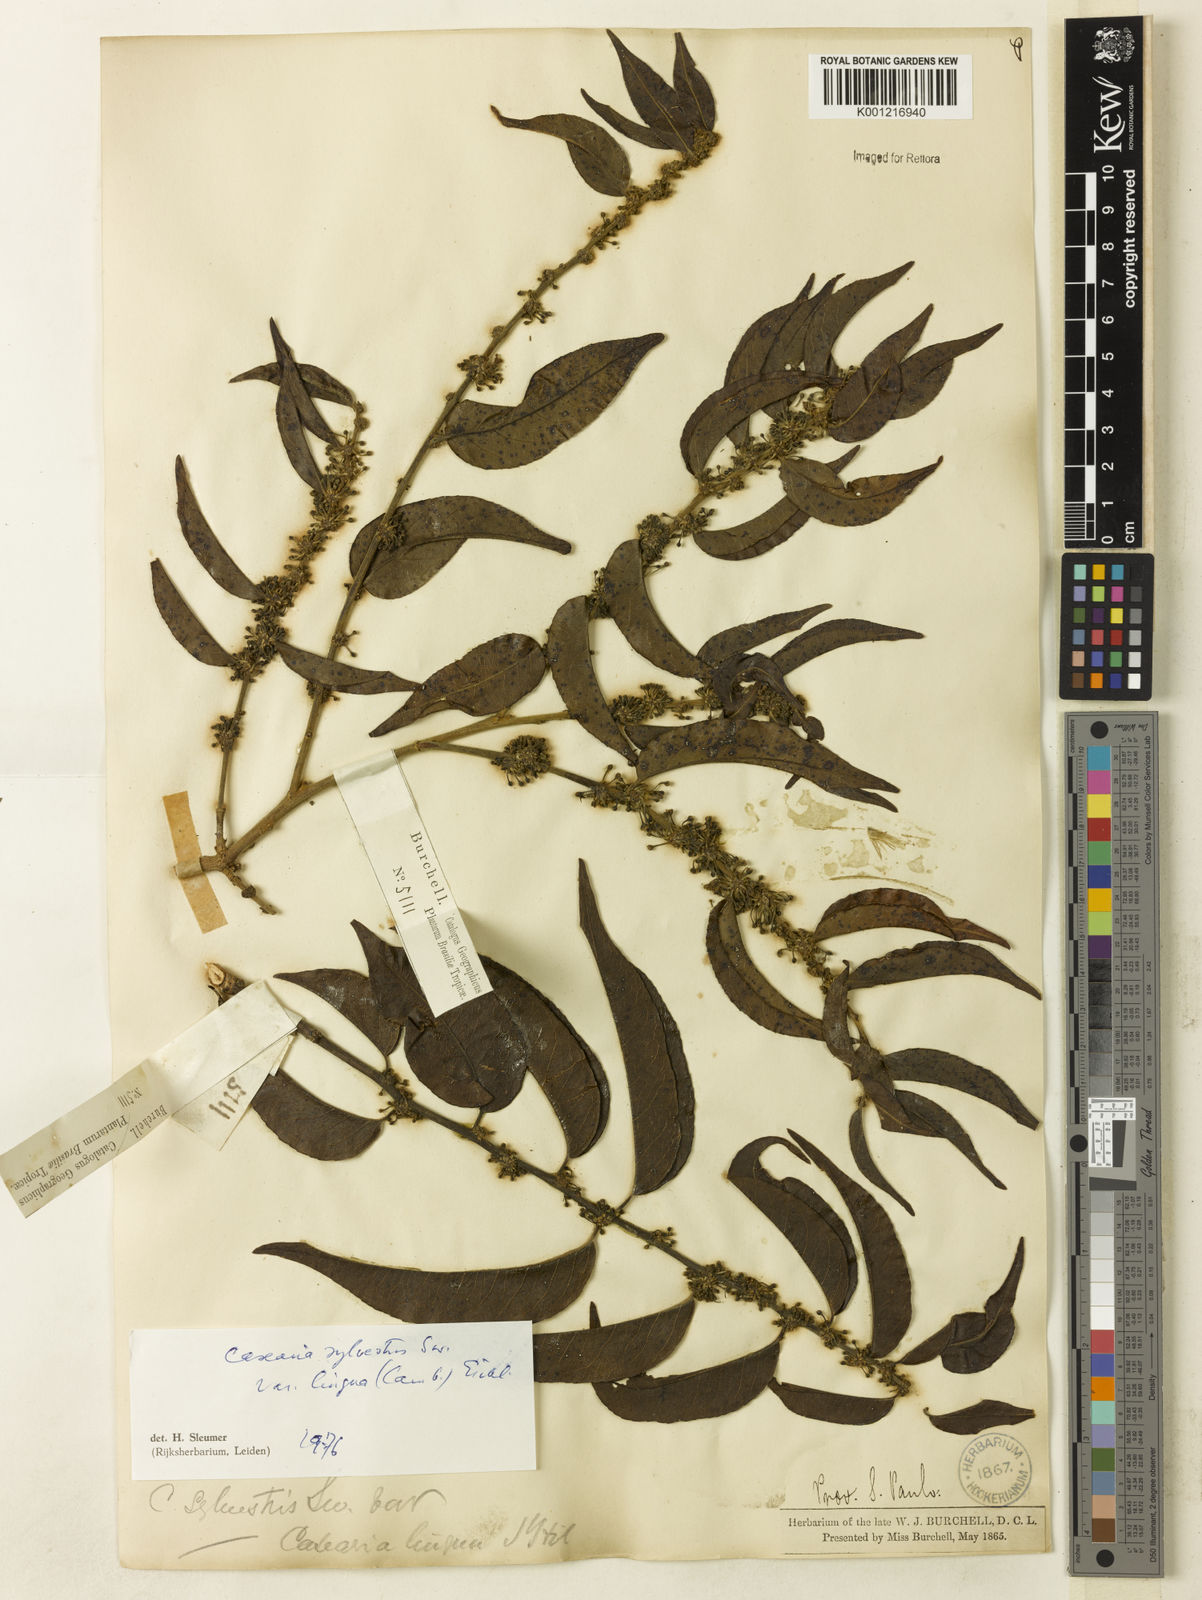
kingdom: Plantae
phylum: Tracheophyta
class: Magnoliopsida
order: Malpighiales
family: Salicaceae
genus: Casearia
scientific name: Casearia sylvestris
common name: Wild sage
